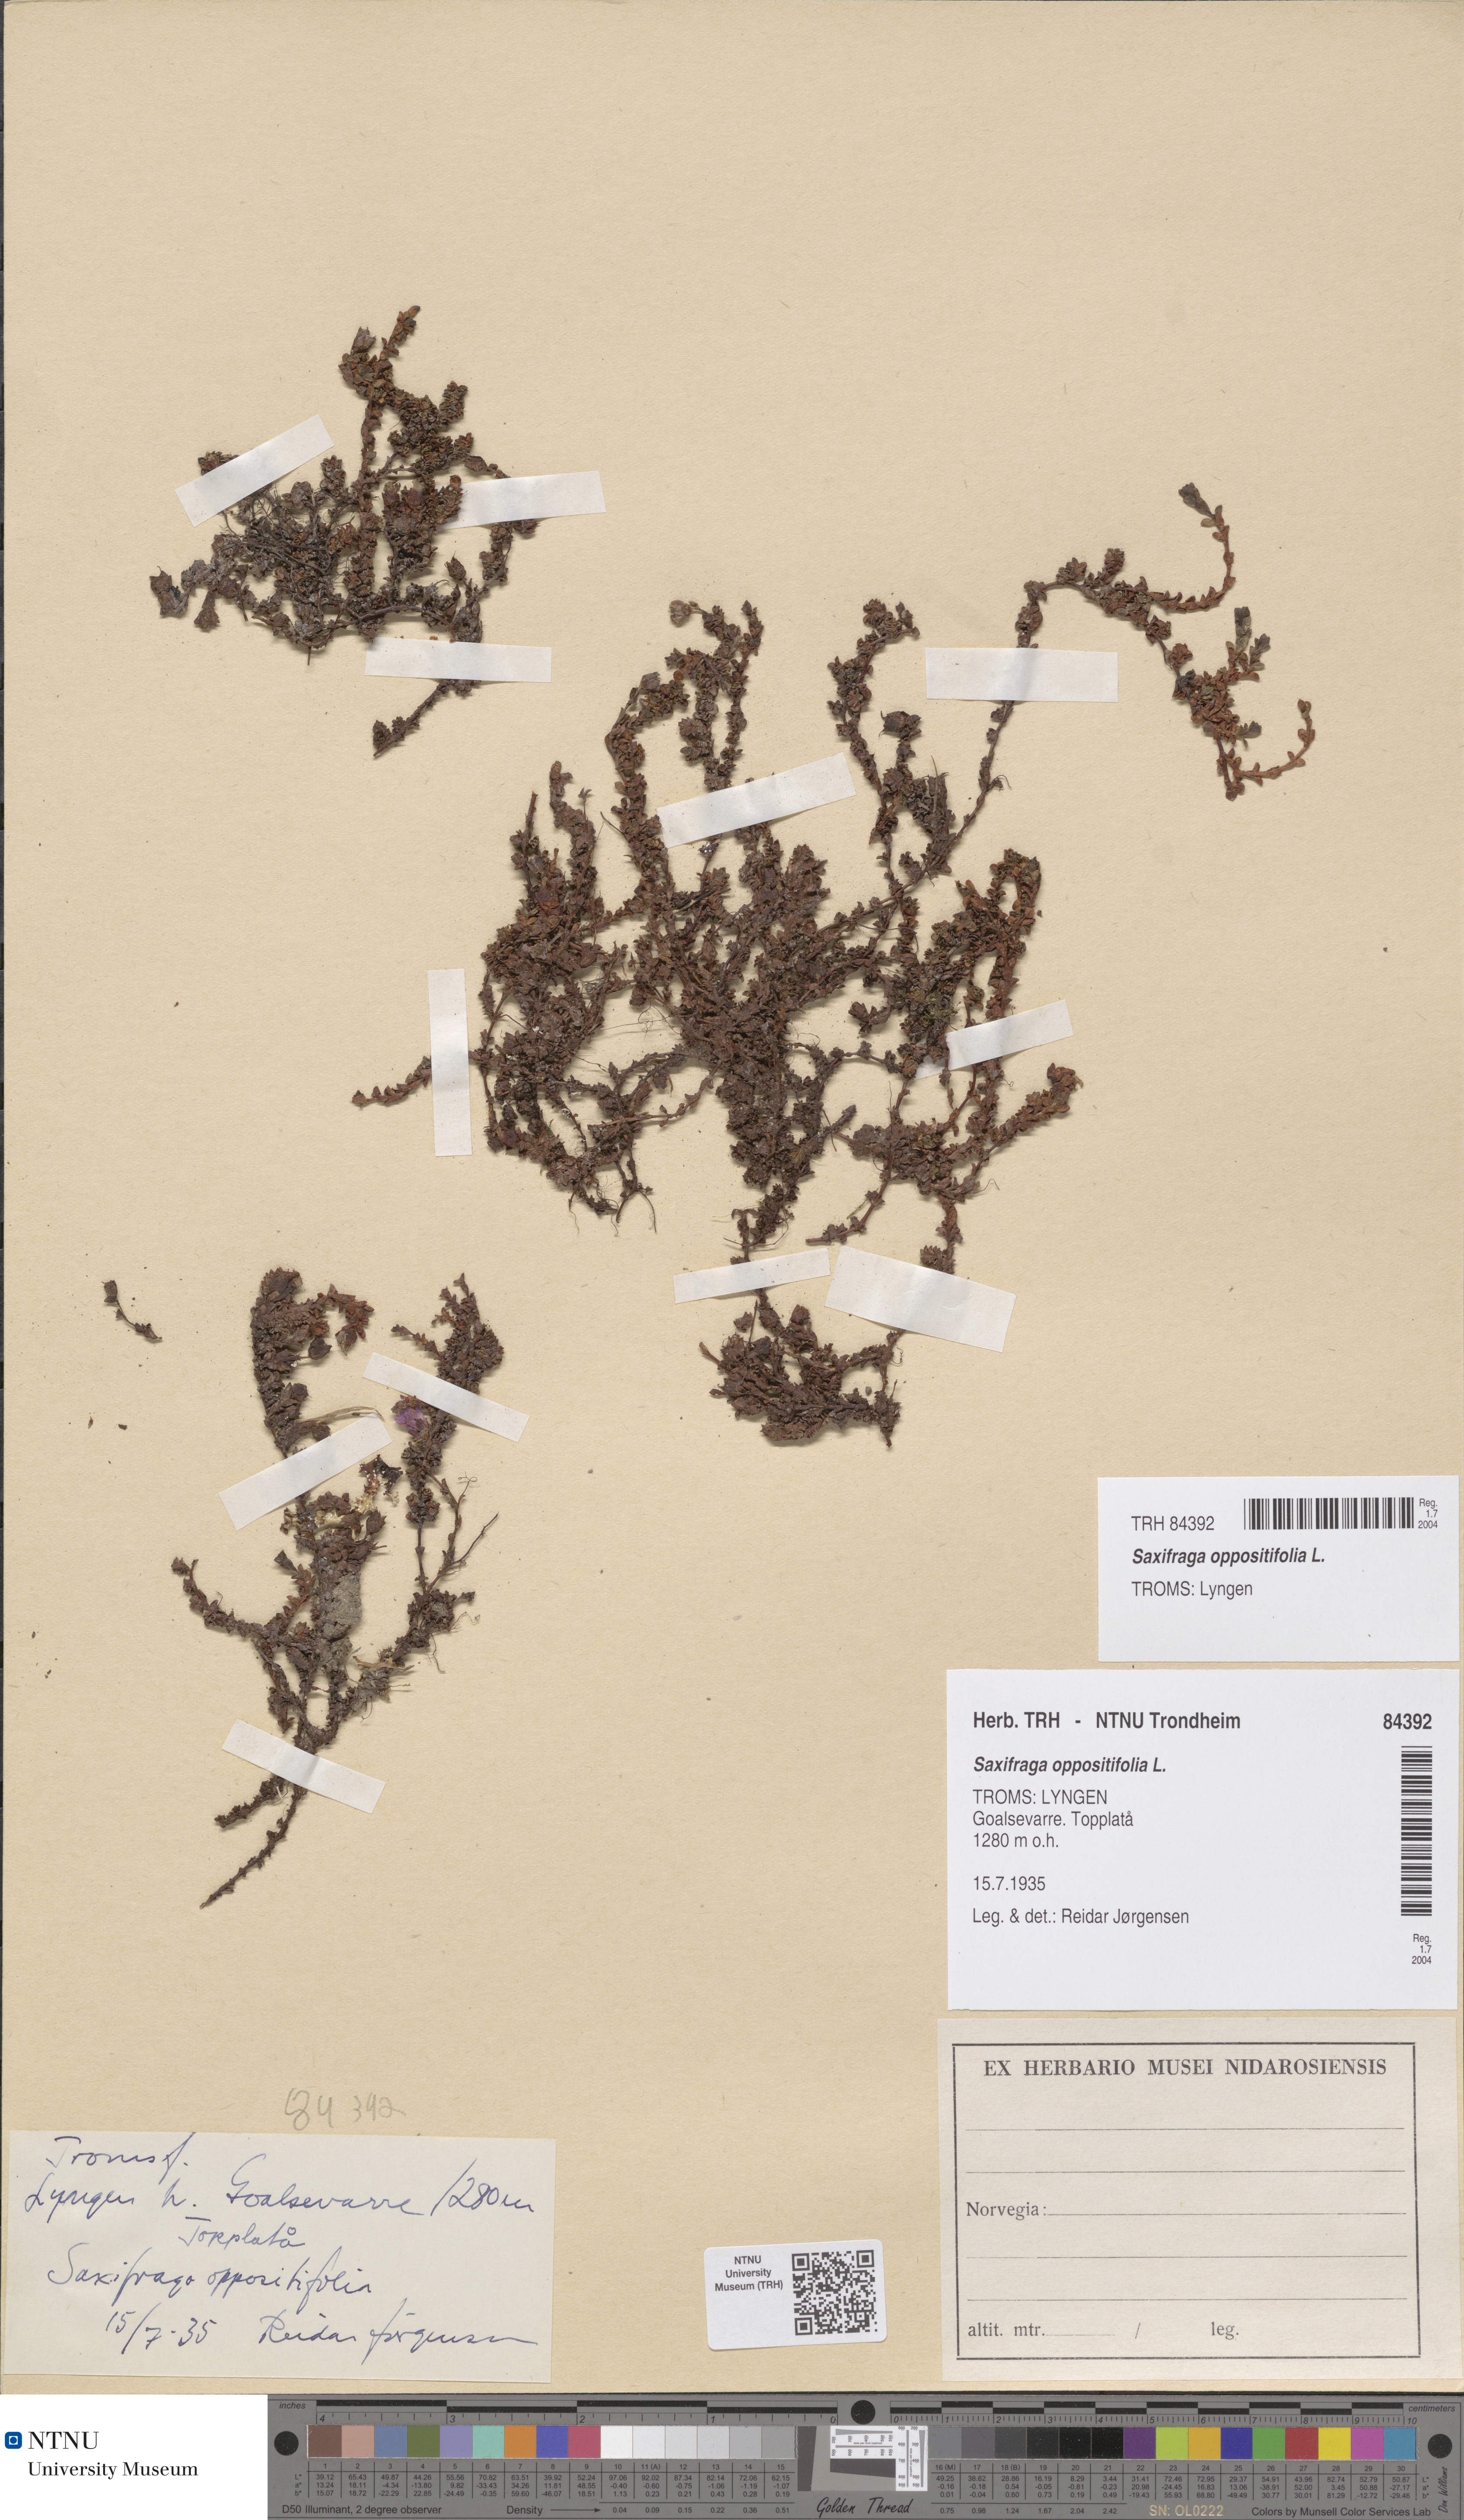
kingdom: Plantae
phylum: Tracheophyta
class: Magnoliopsida
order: Saxifragales
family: Saxifragaceae
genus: Saxifraga
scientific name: Saxifraga oppositifolia
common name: Purple saxifrage
